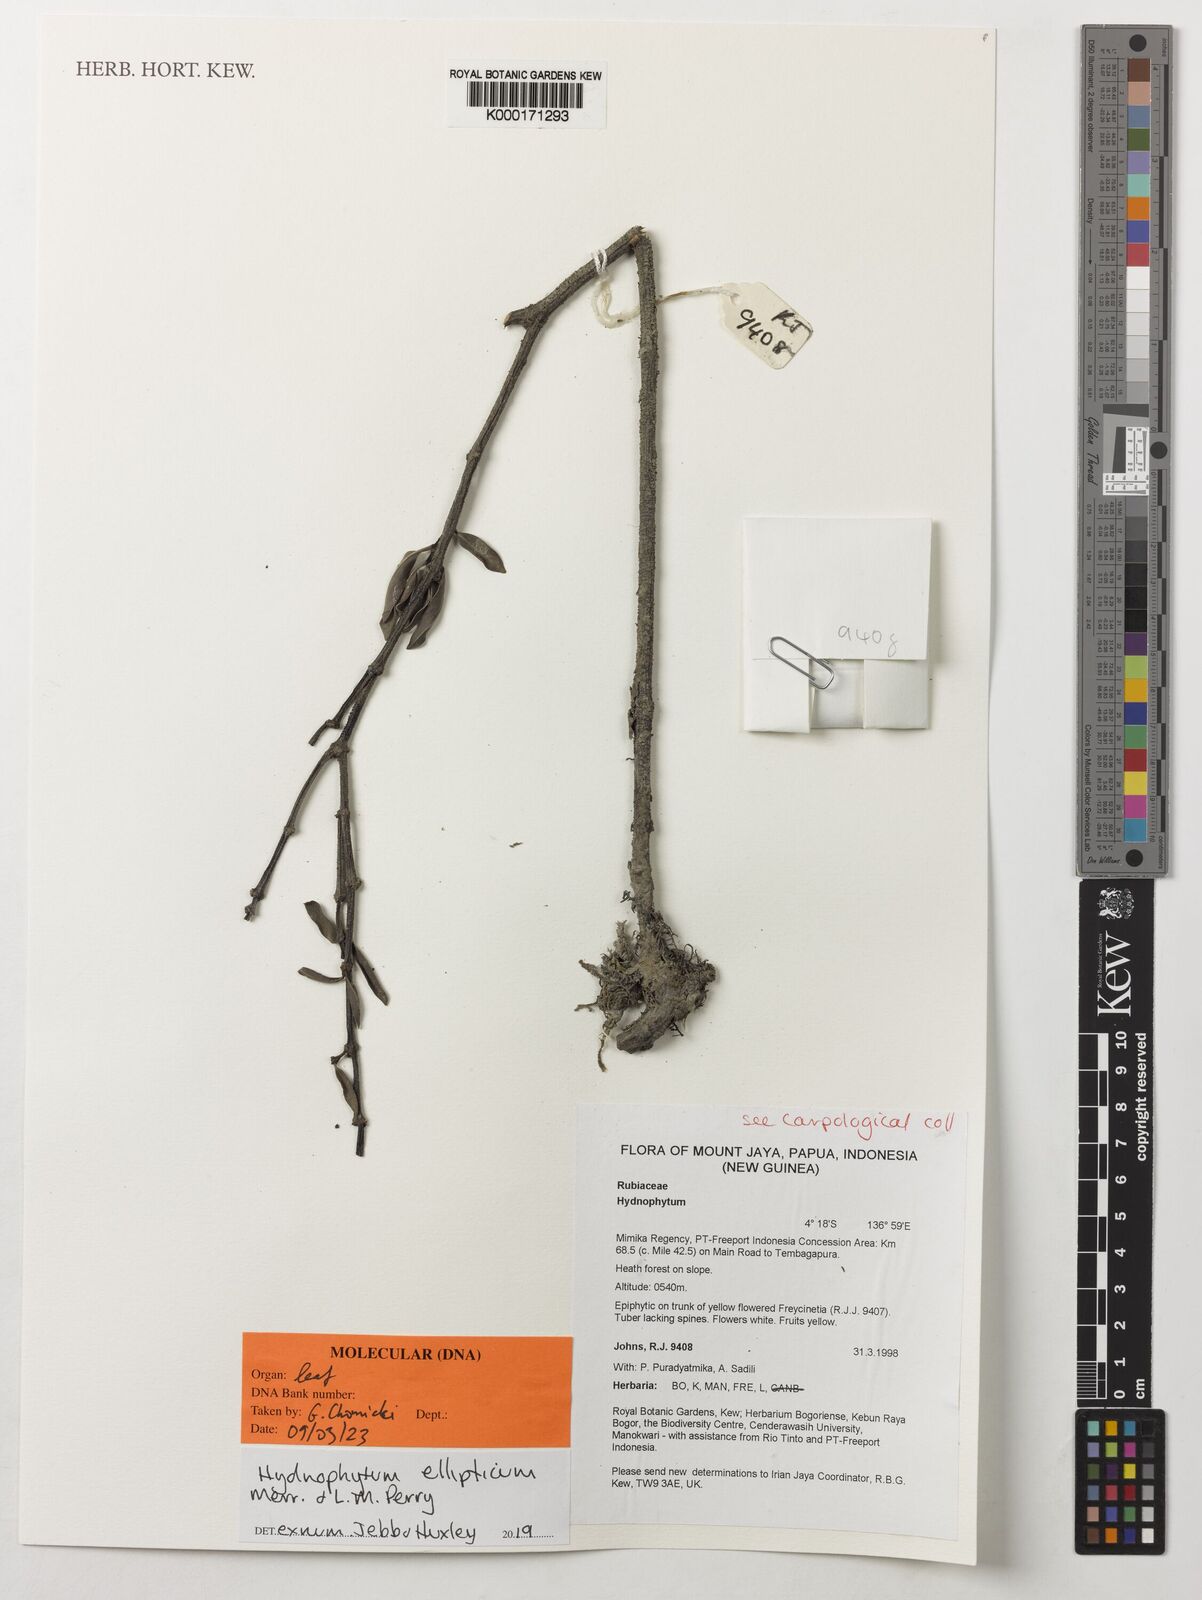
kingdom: Plantae
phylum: Tracheophyta
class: Magnoliopsida
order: Gentianales
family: Rubiaceae
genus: Hydnophytum
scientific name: Hydnophytum ellipticum
